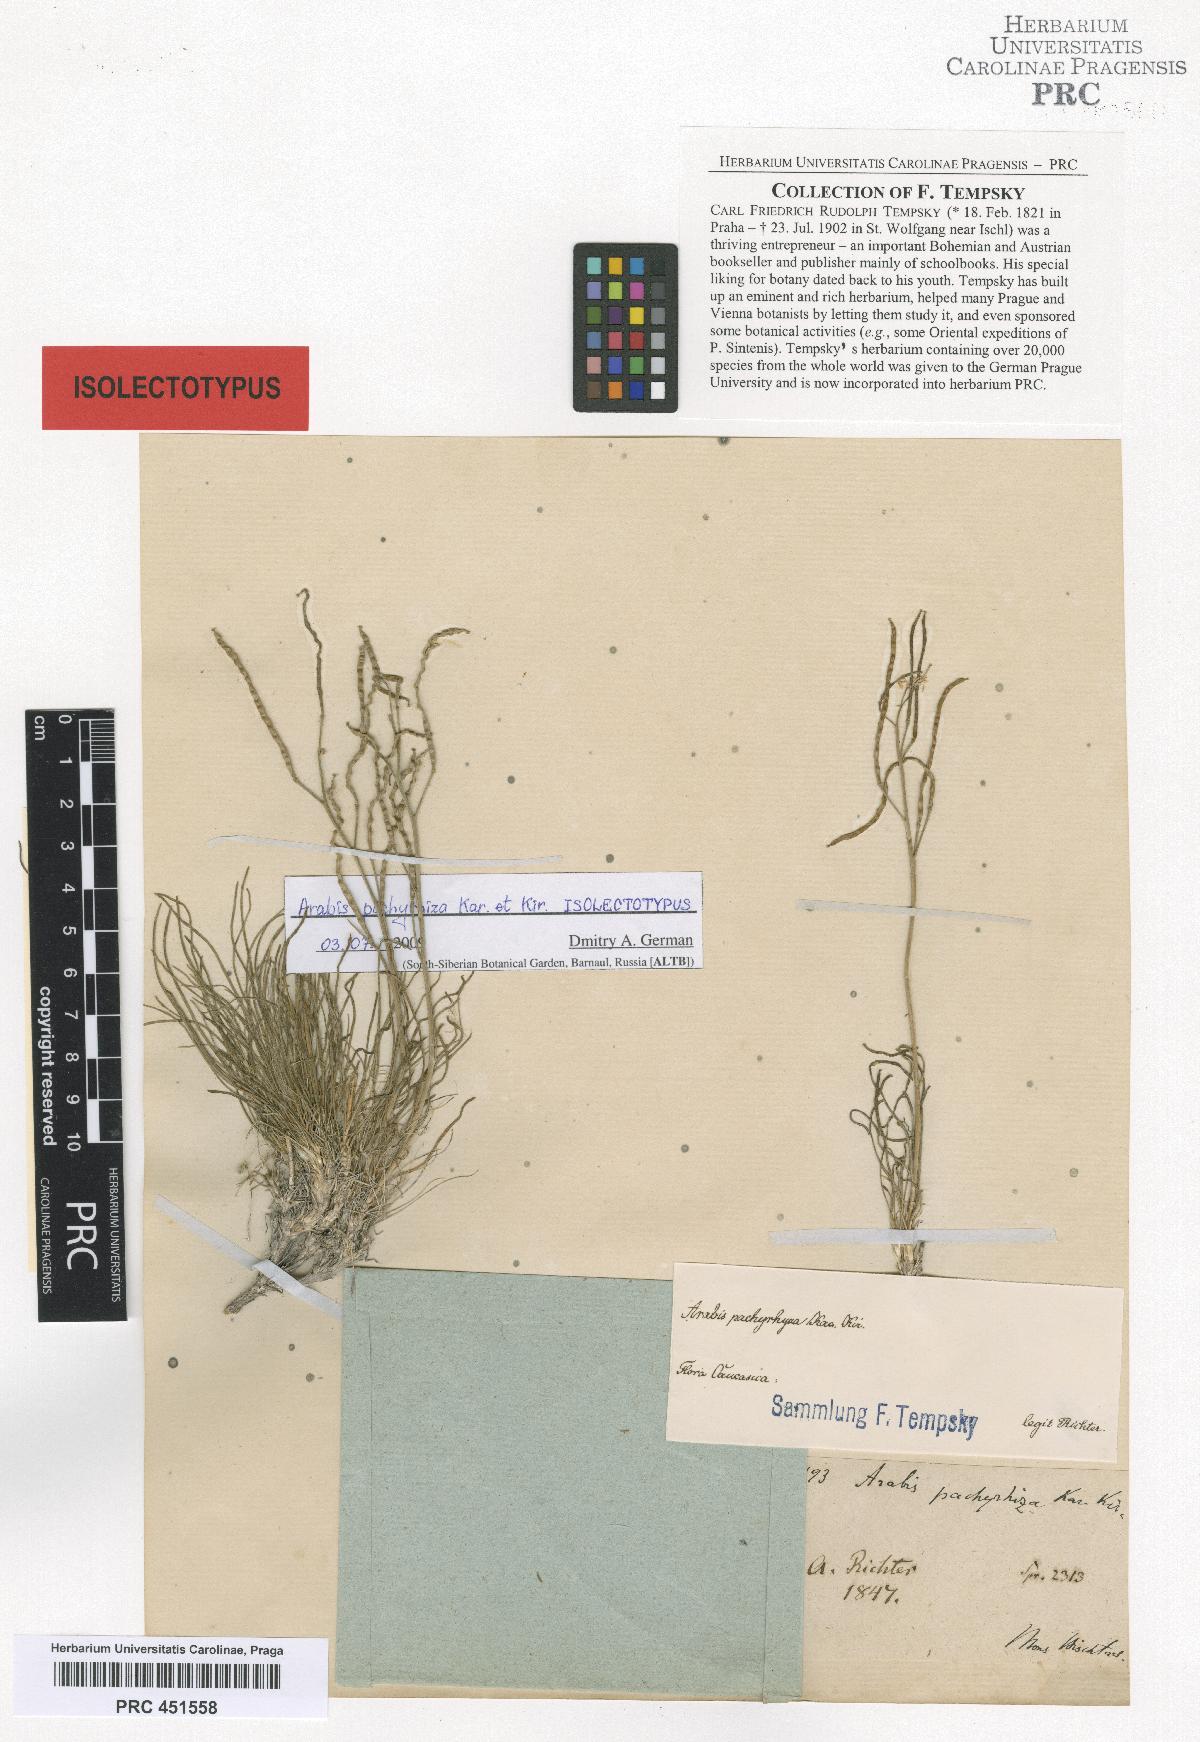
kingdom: Plantae
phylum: Tracheophyta
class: Magnoliopsida
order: Brassicales
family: Brassicaceae
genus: Rhammatophyllum
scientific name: Rhammatophyllum pachyrhizum
